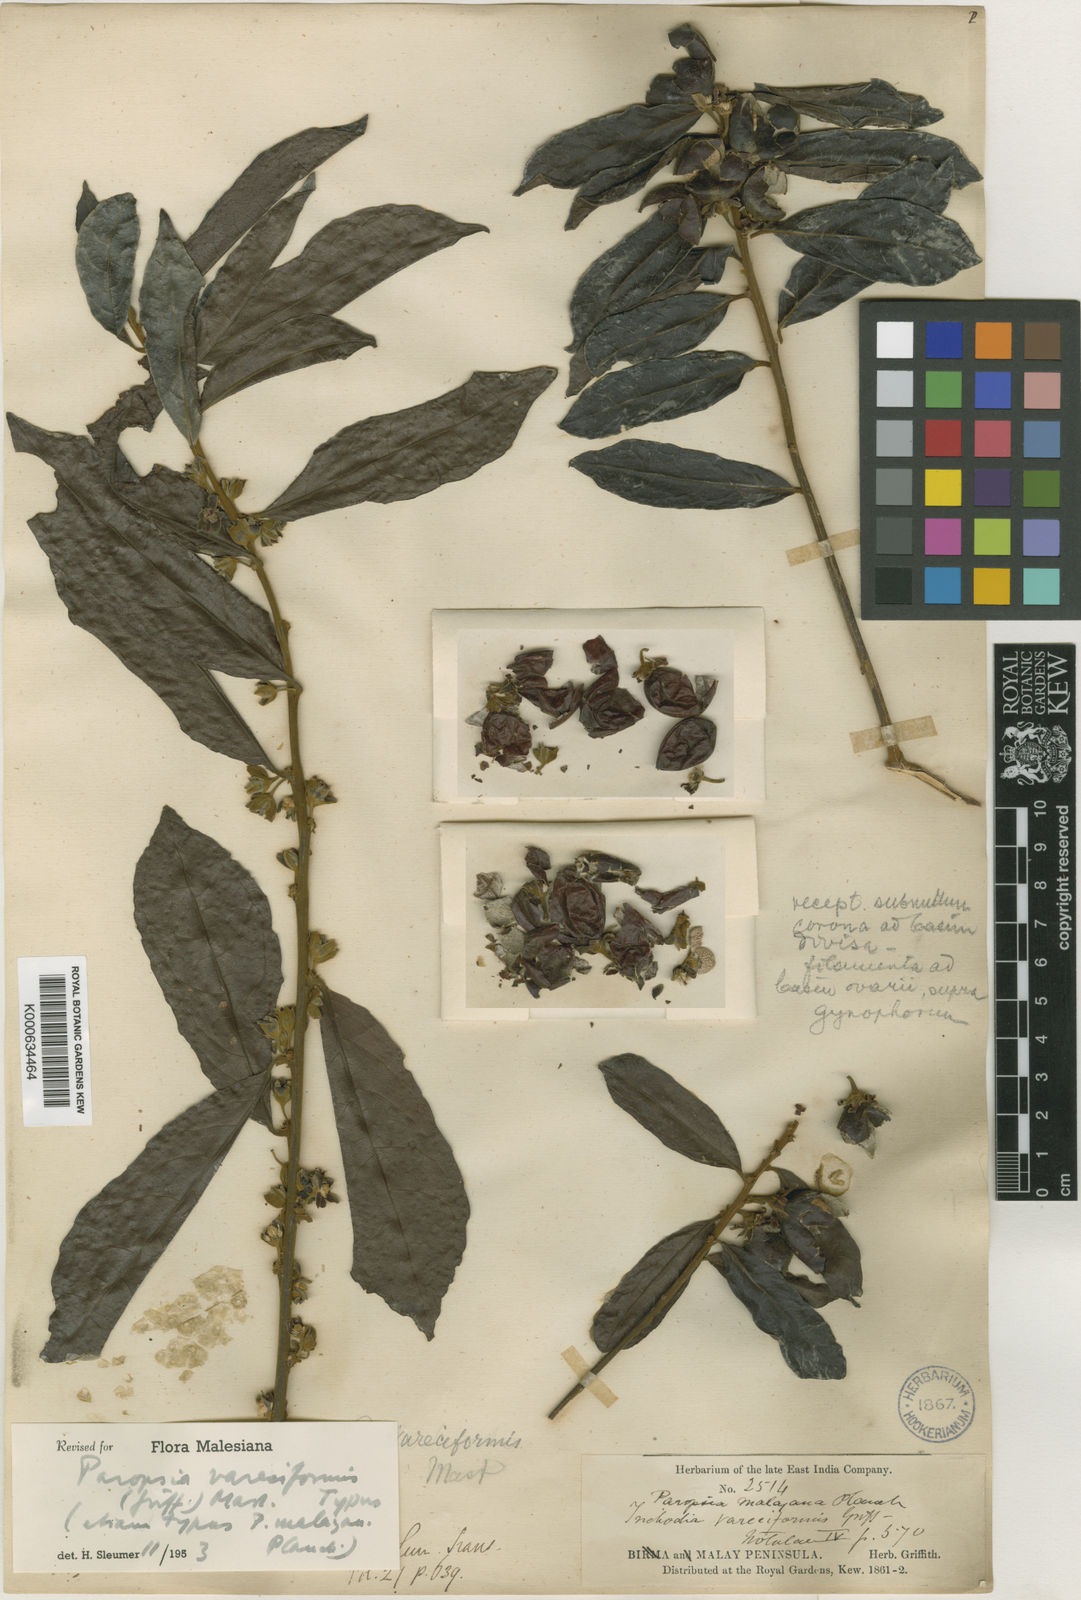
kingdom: Plantae
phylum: Tracheophyta
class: Magnoliopsida
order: Malpighiales
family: Passifloraceae
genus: Paropsia
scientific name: Paropsia vareciformis
